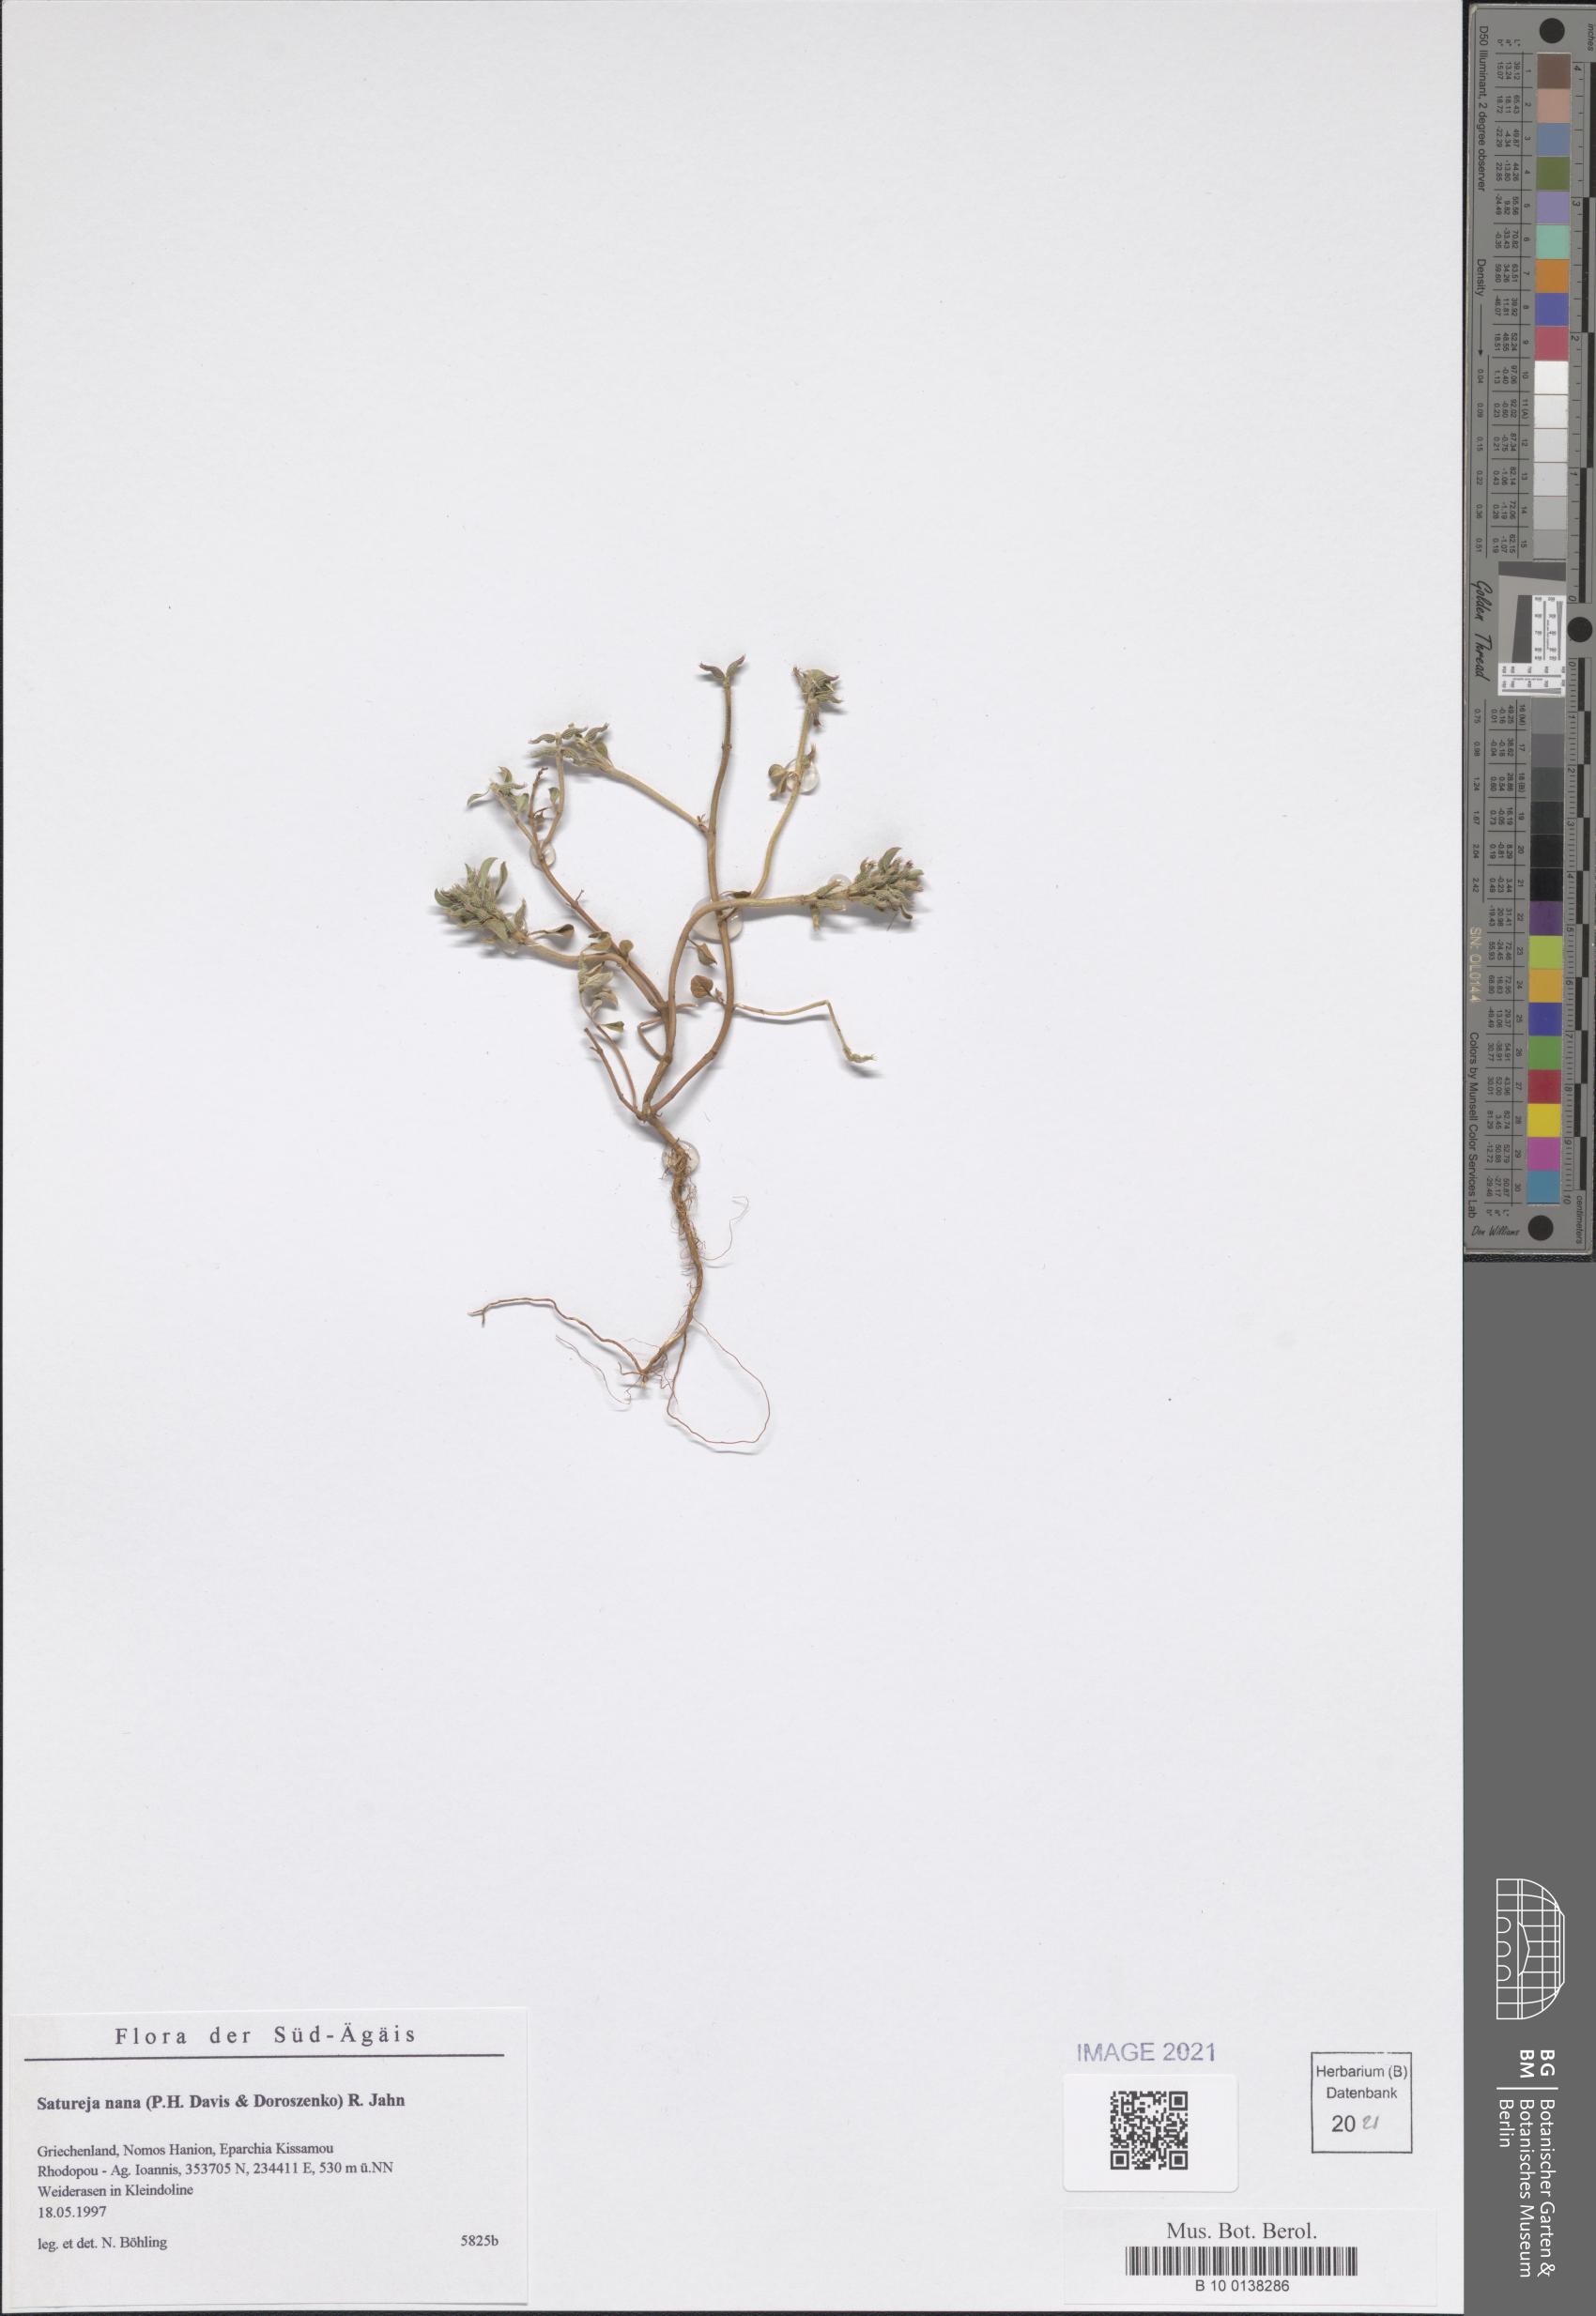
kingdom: Plantae
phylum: Tracheophyta
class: Magnoliopsida
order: Lamiales
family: Lamiaceae
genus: Clinopodium
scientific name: Clinopodium nanum
